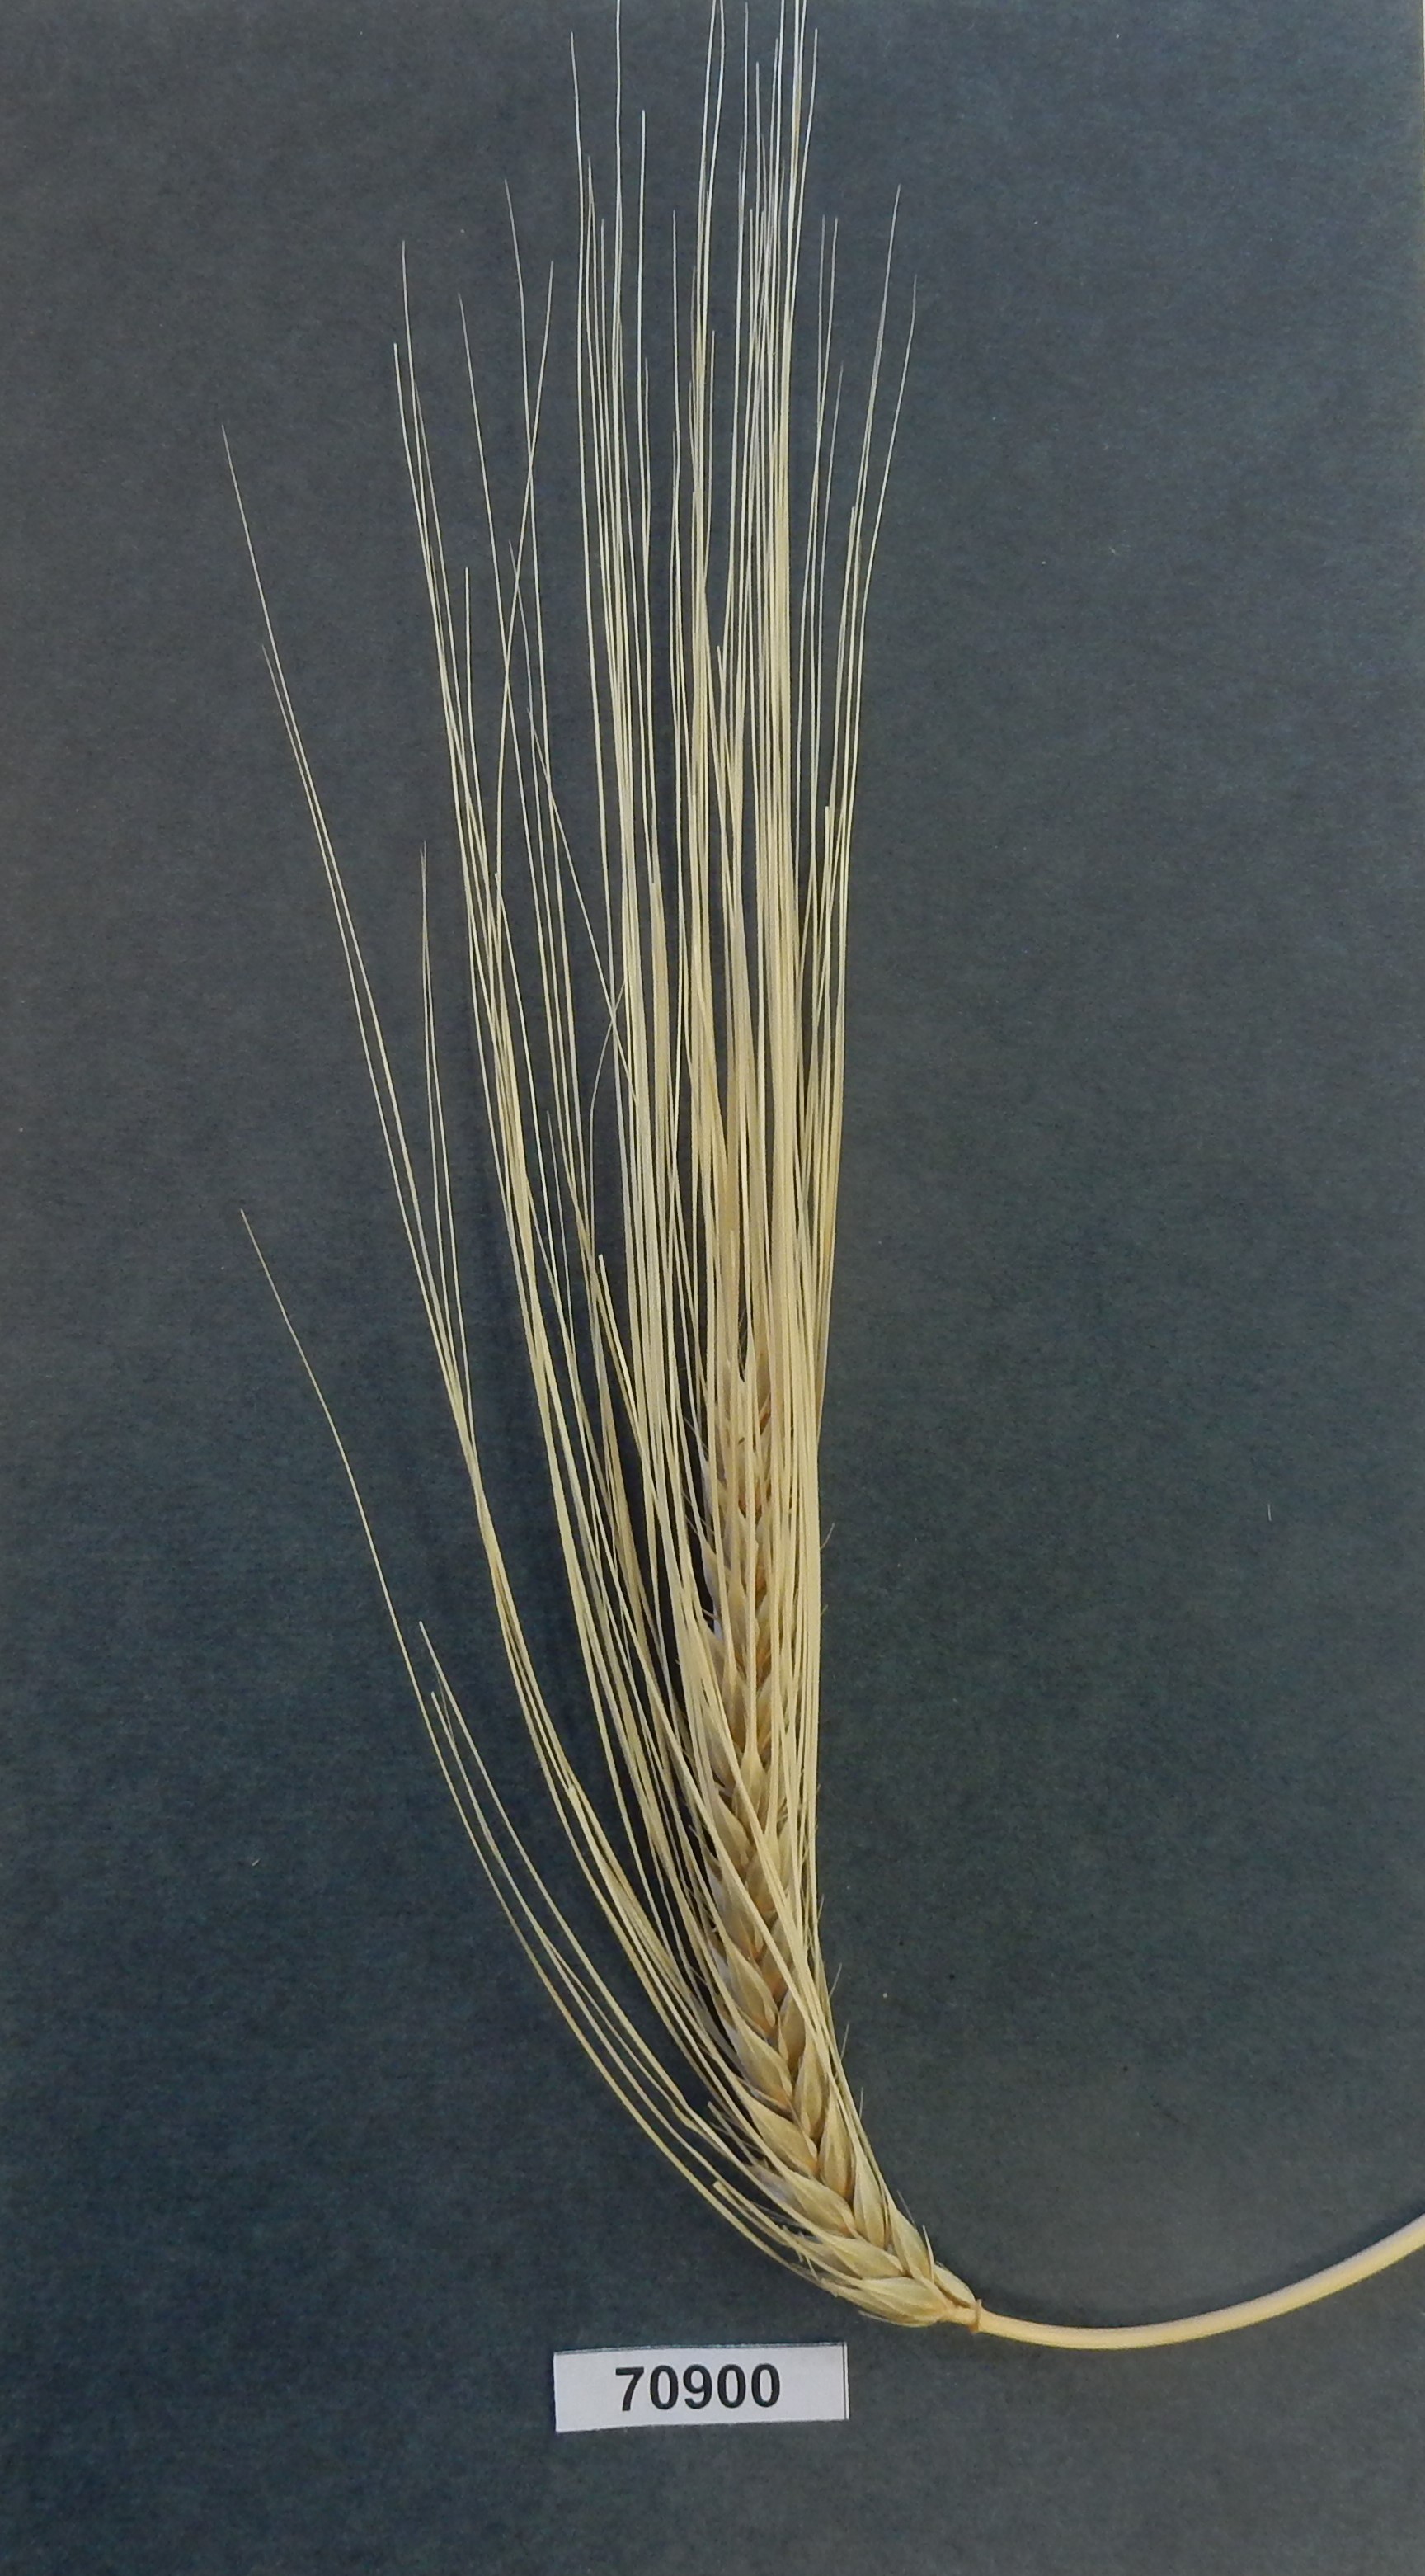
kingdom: Plantae
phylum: Tracheophyta
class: Liliopsida
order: Poales
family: Poaceae
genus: Hordeum
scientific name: Hordeum vulgare
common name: Barley
